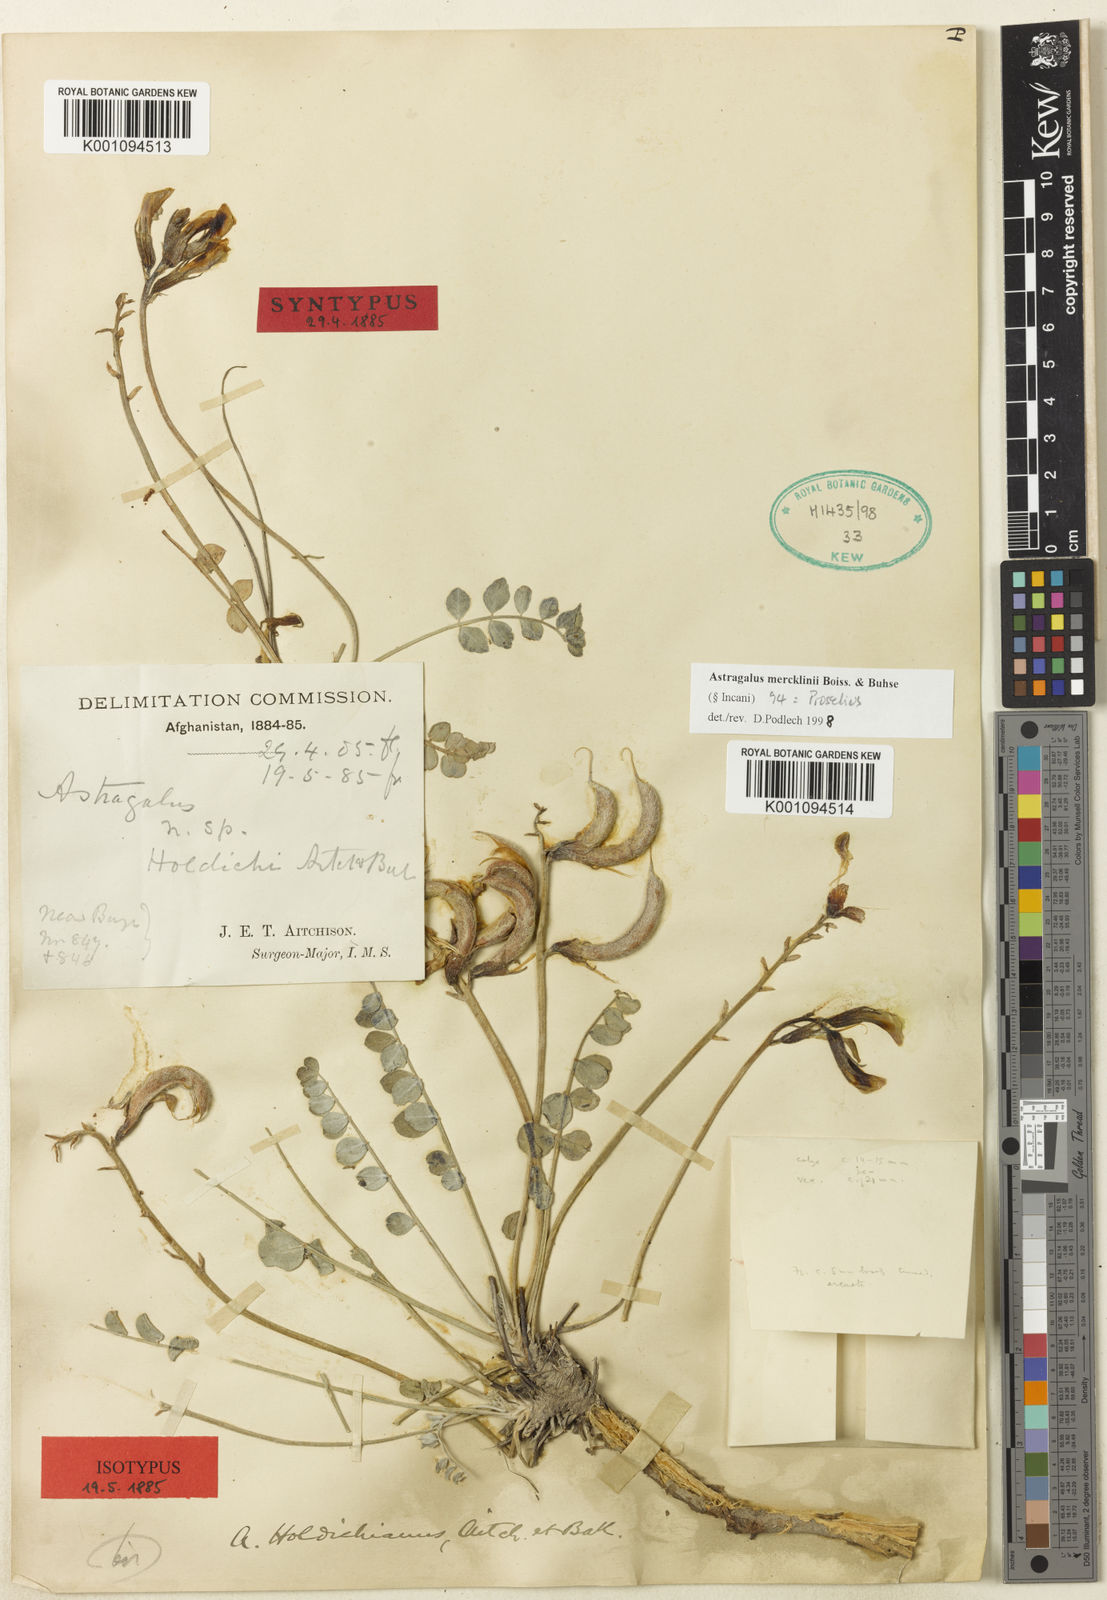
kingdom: Plantae
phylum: Tracheophyta
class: Magnoliopsida
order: Fabales
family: Fabaceae
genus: Astragalus
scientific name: Astragalus
